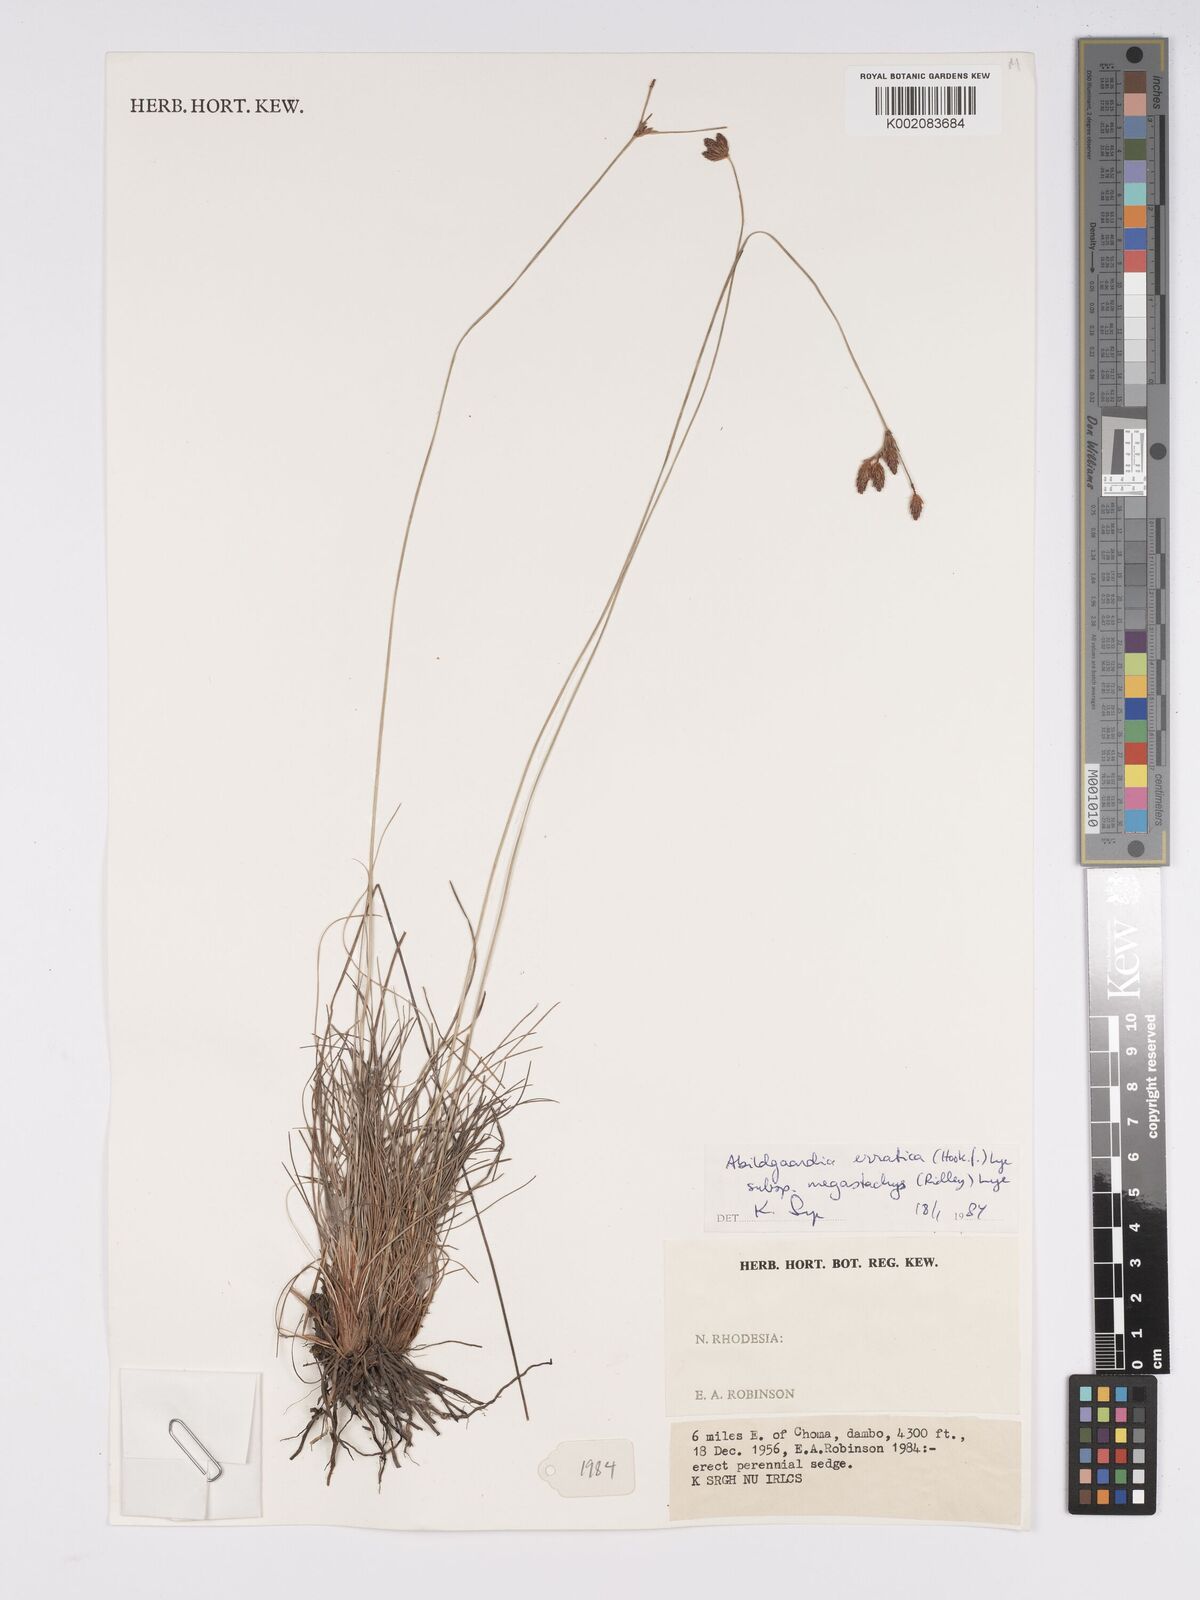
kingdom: Plantae
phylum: Tracheophyta
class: Liliopsida
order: Poales
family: Cyperaceae
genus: Bulbostylis
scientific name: Bulbostylis schoenoides
